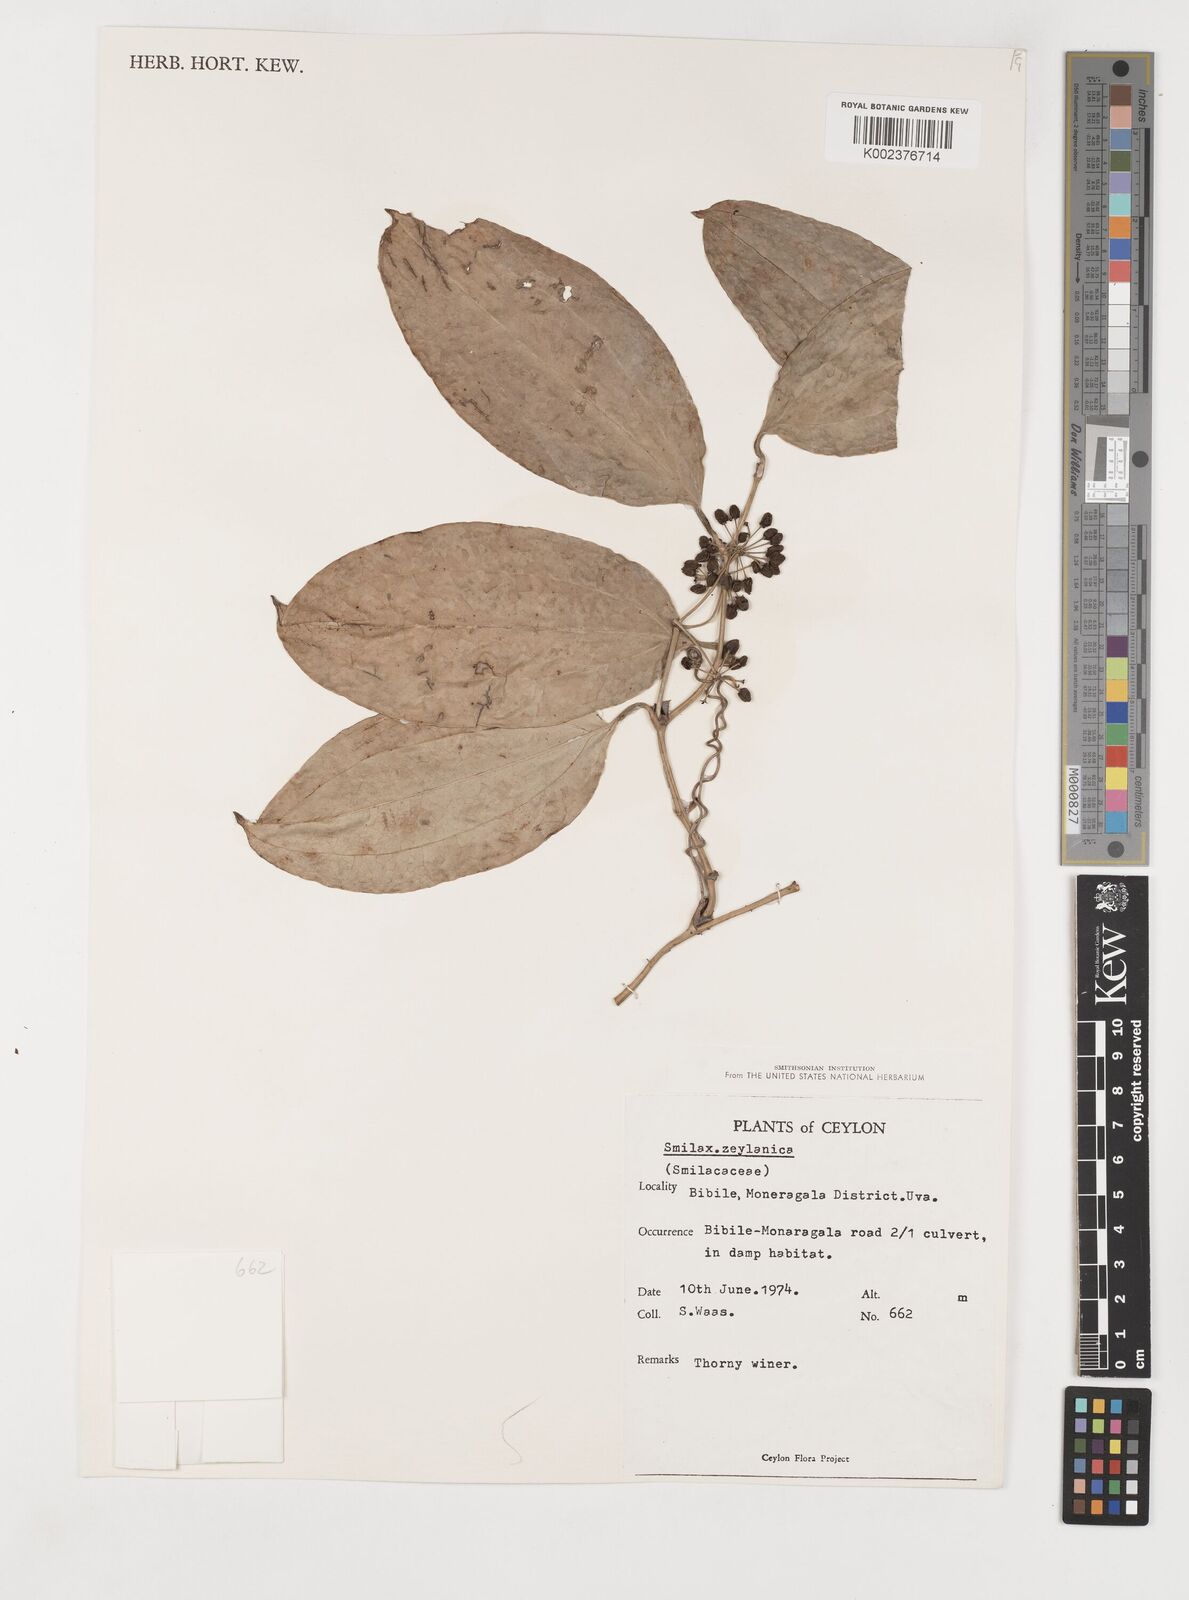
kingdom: Plantae
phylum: Tracheophyta
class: Liliopsida
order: Liliales
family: Smilacaceae
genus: Smilax
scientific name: Smilax zeylanica
